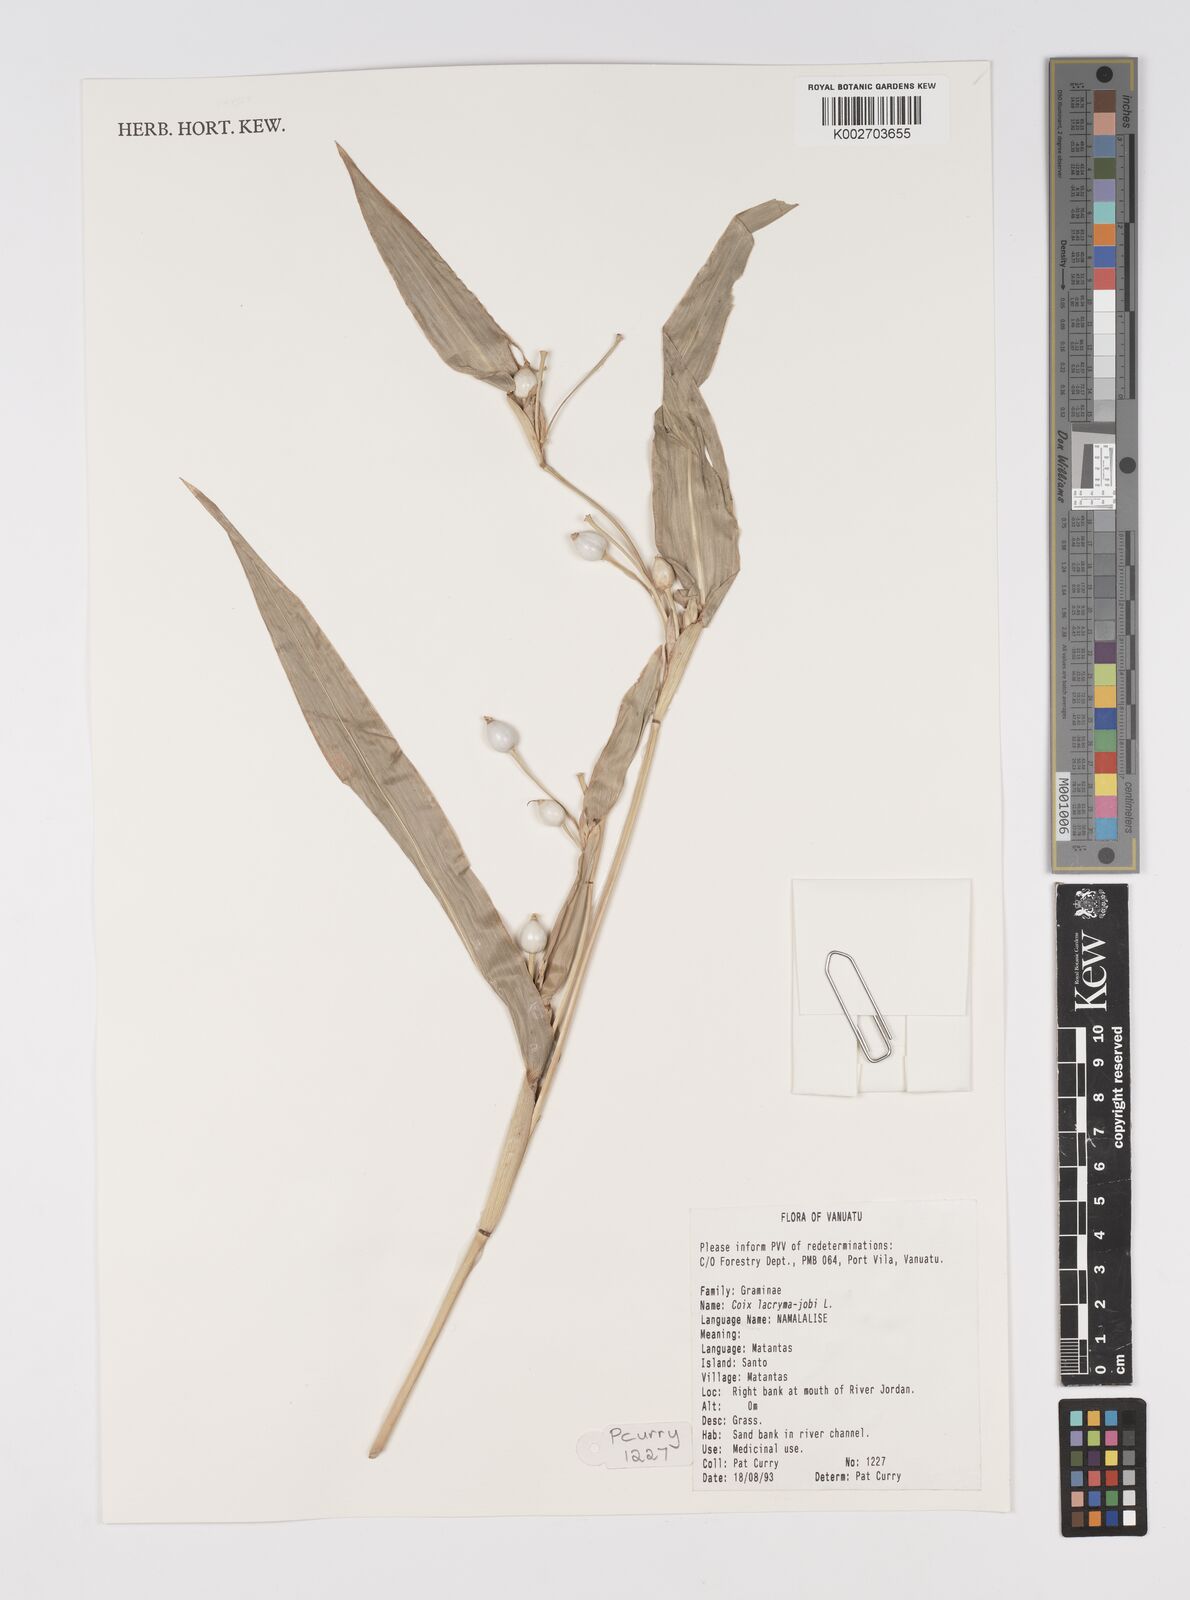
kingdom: Plantae
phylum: Tracheophyta
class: Liliopsida
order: Poales
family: Poaceae
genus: Coix
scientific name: Coix lacryma-jobi
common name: Job's tears
